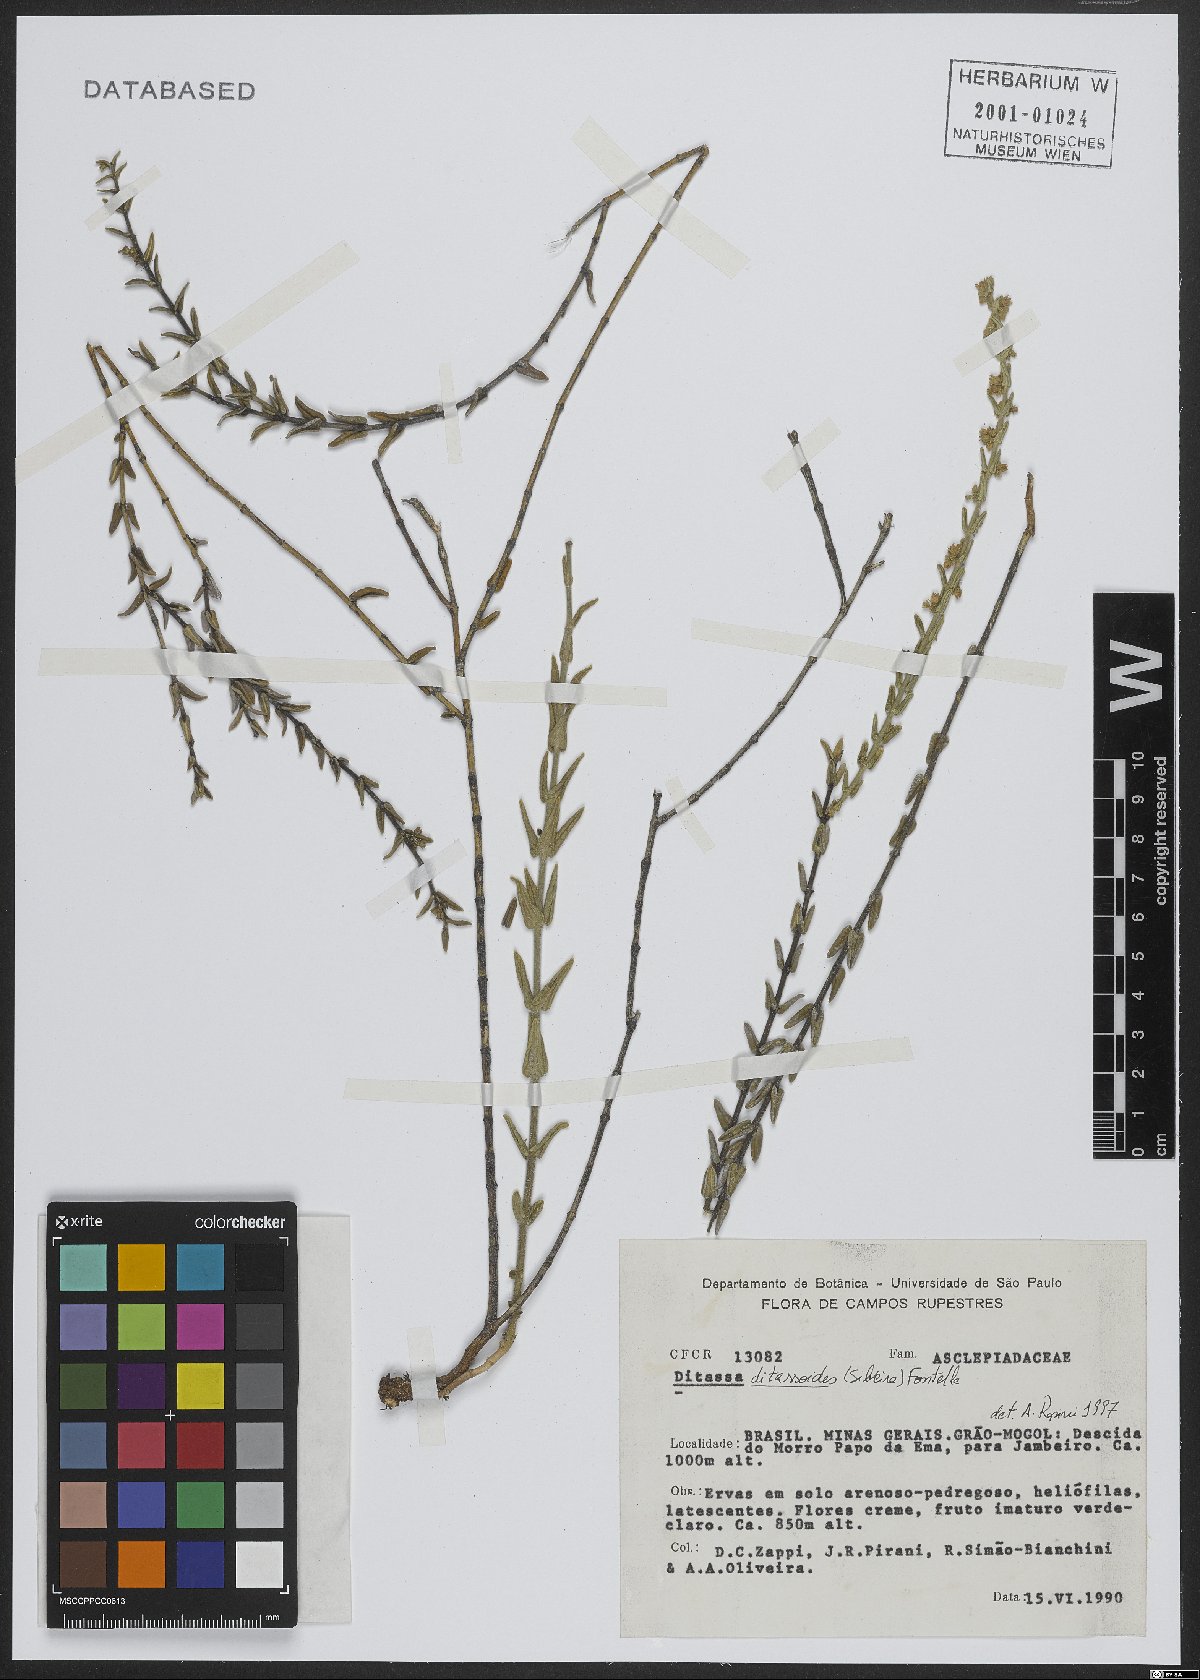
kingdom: Plantae
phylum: Tracheophyta
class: Magnoliopsida
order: Gentianales
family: Apocynaceae
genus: Minaria
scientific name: Minaria ditassoides
